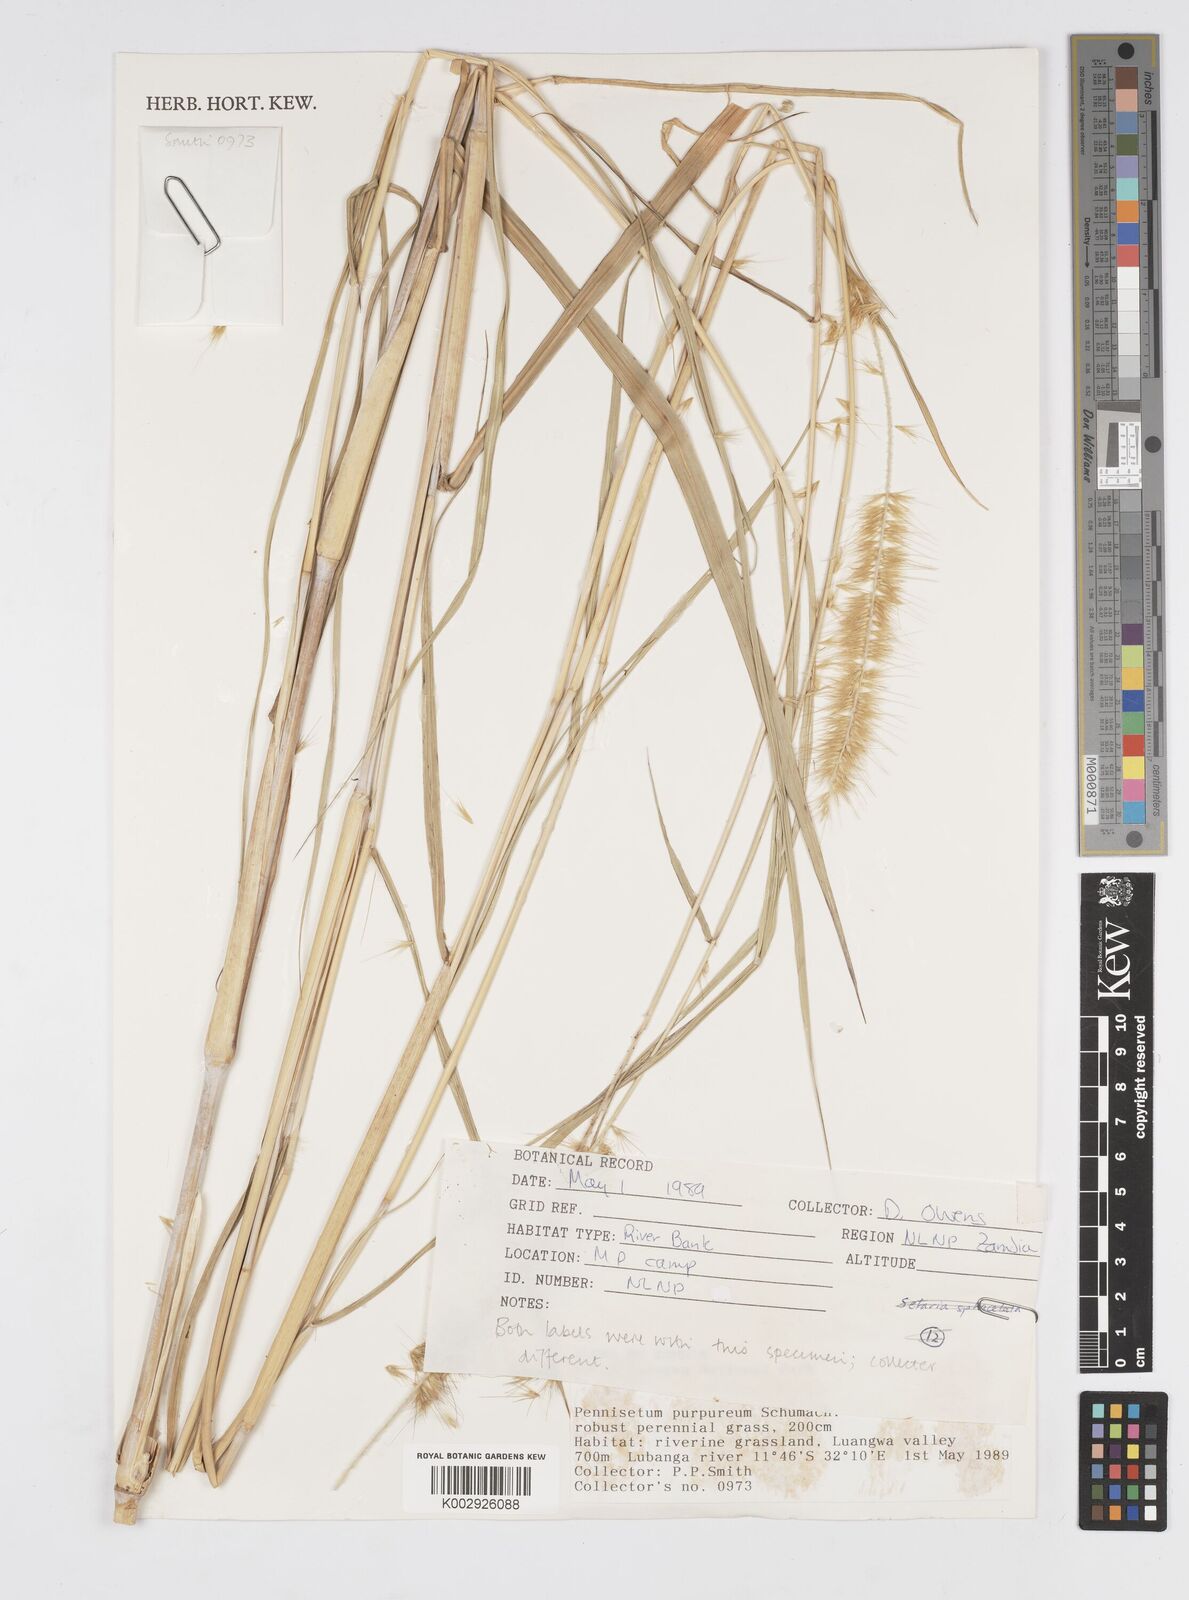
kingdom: Plantae
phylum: Tracheophyta
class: Liliopsida
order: Poales
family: Poaceae
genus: Cenchrus
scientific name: Cenchrus purpureus
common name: Elephant grass
